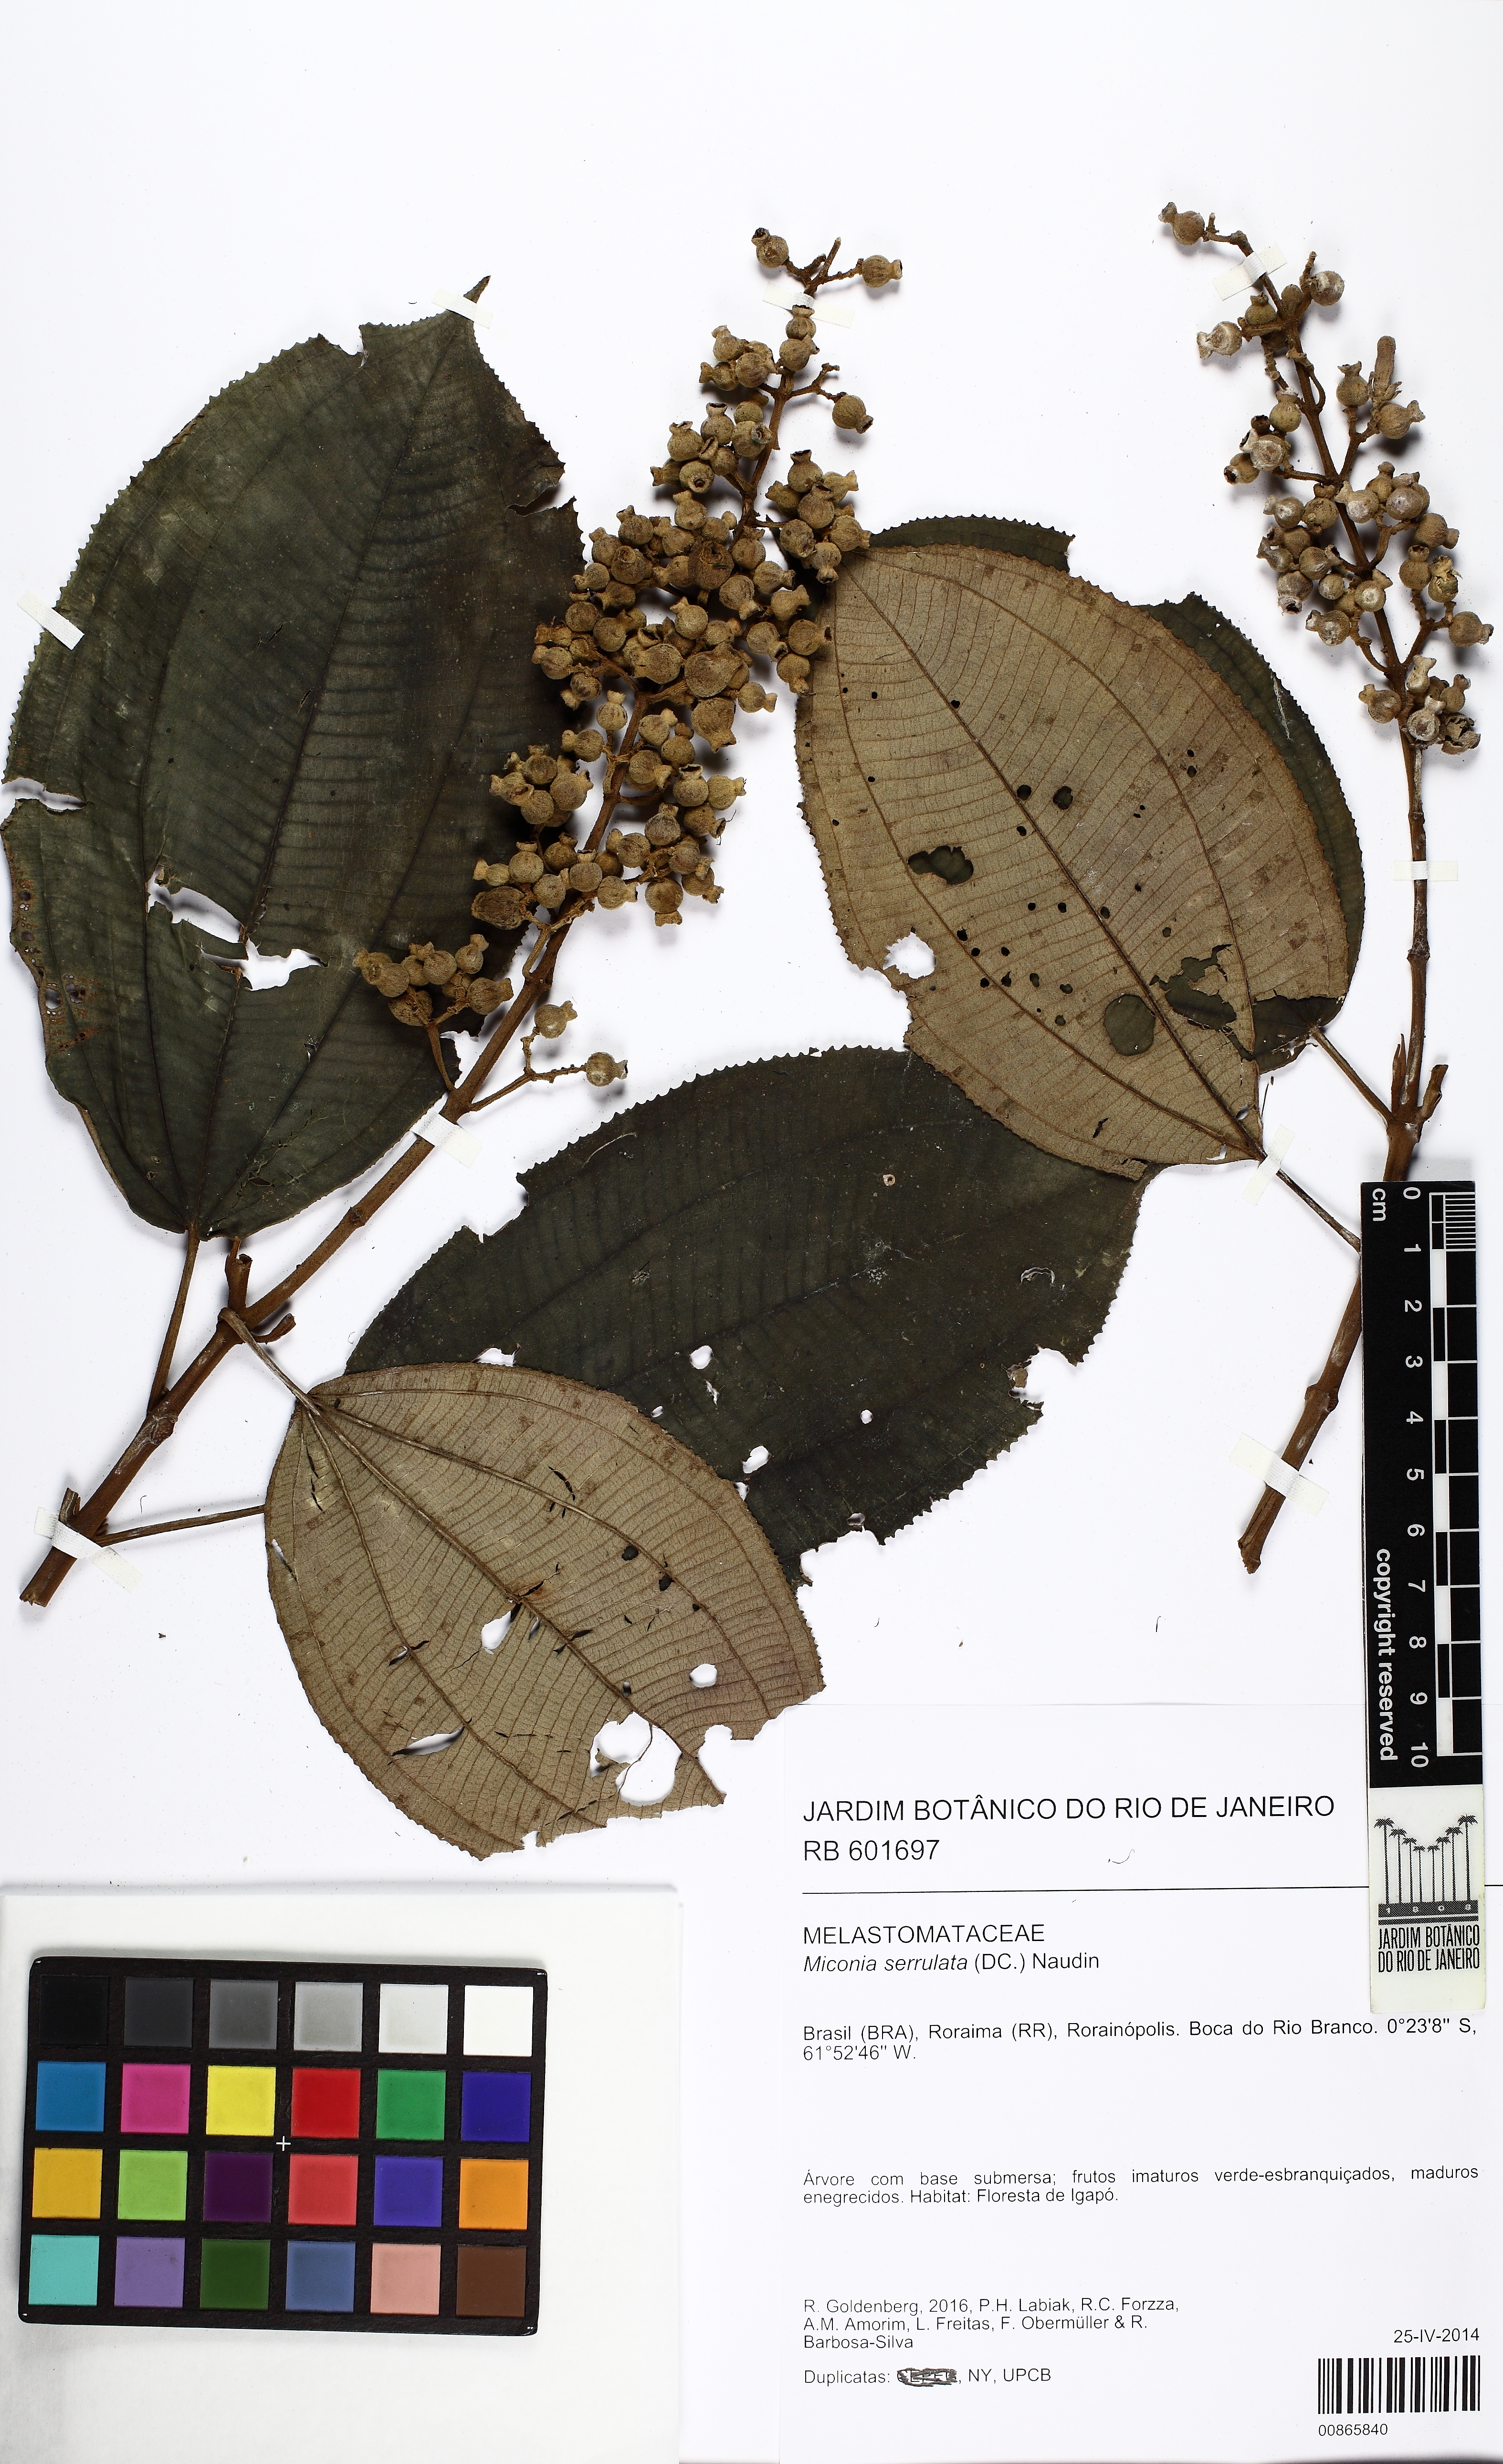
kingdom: Plantae
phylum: Tracheophyta
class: Magnoliopsida
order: Myrtales
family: Melastomataceae
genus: Miconia
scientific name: Miconia serrulata
